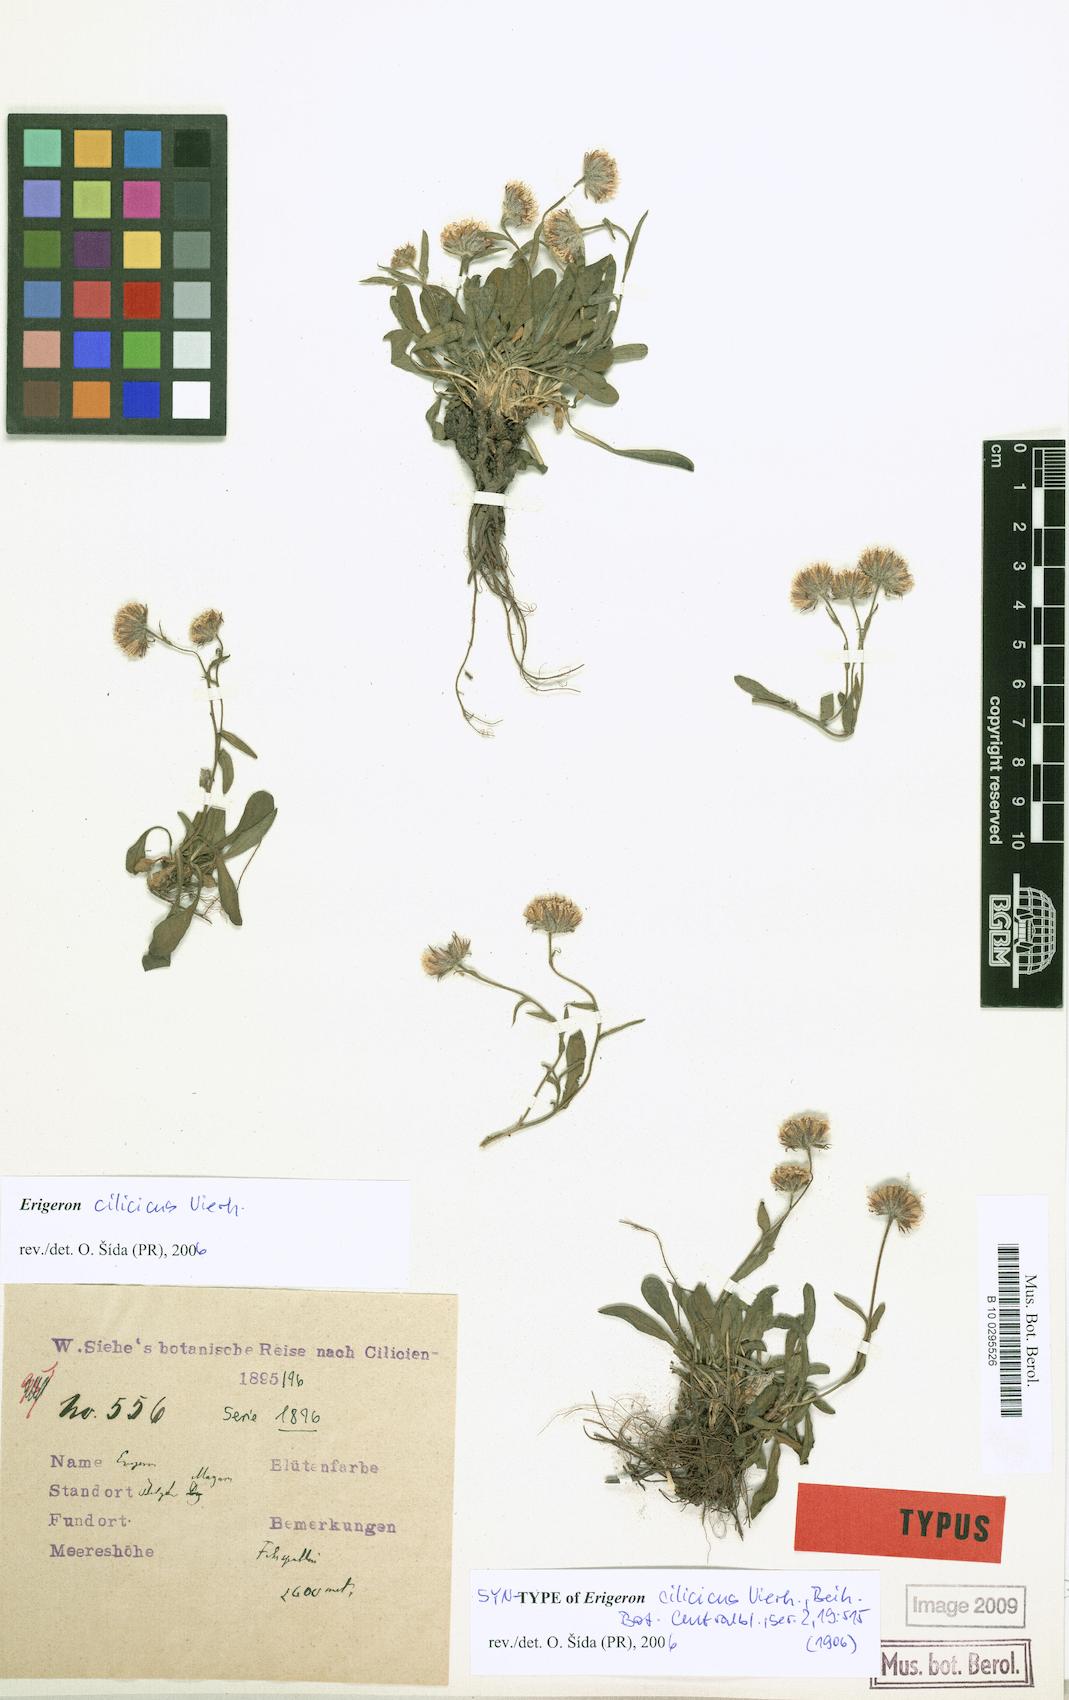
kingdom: Plantae
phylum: Tracheophyta
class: Magnoliopsida
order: Asterales
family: Asteraceae
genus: Erigeron
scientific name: Erigeron cilicicus
